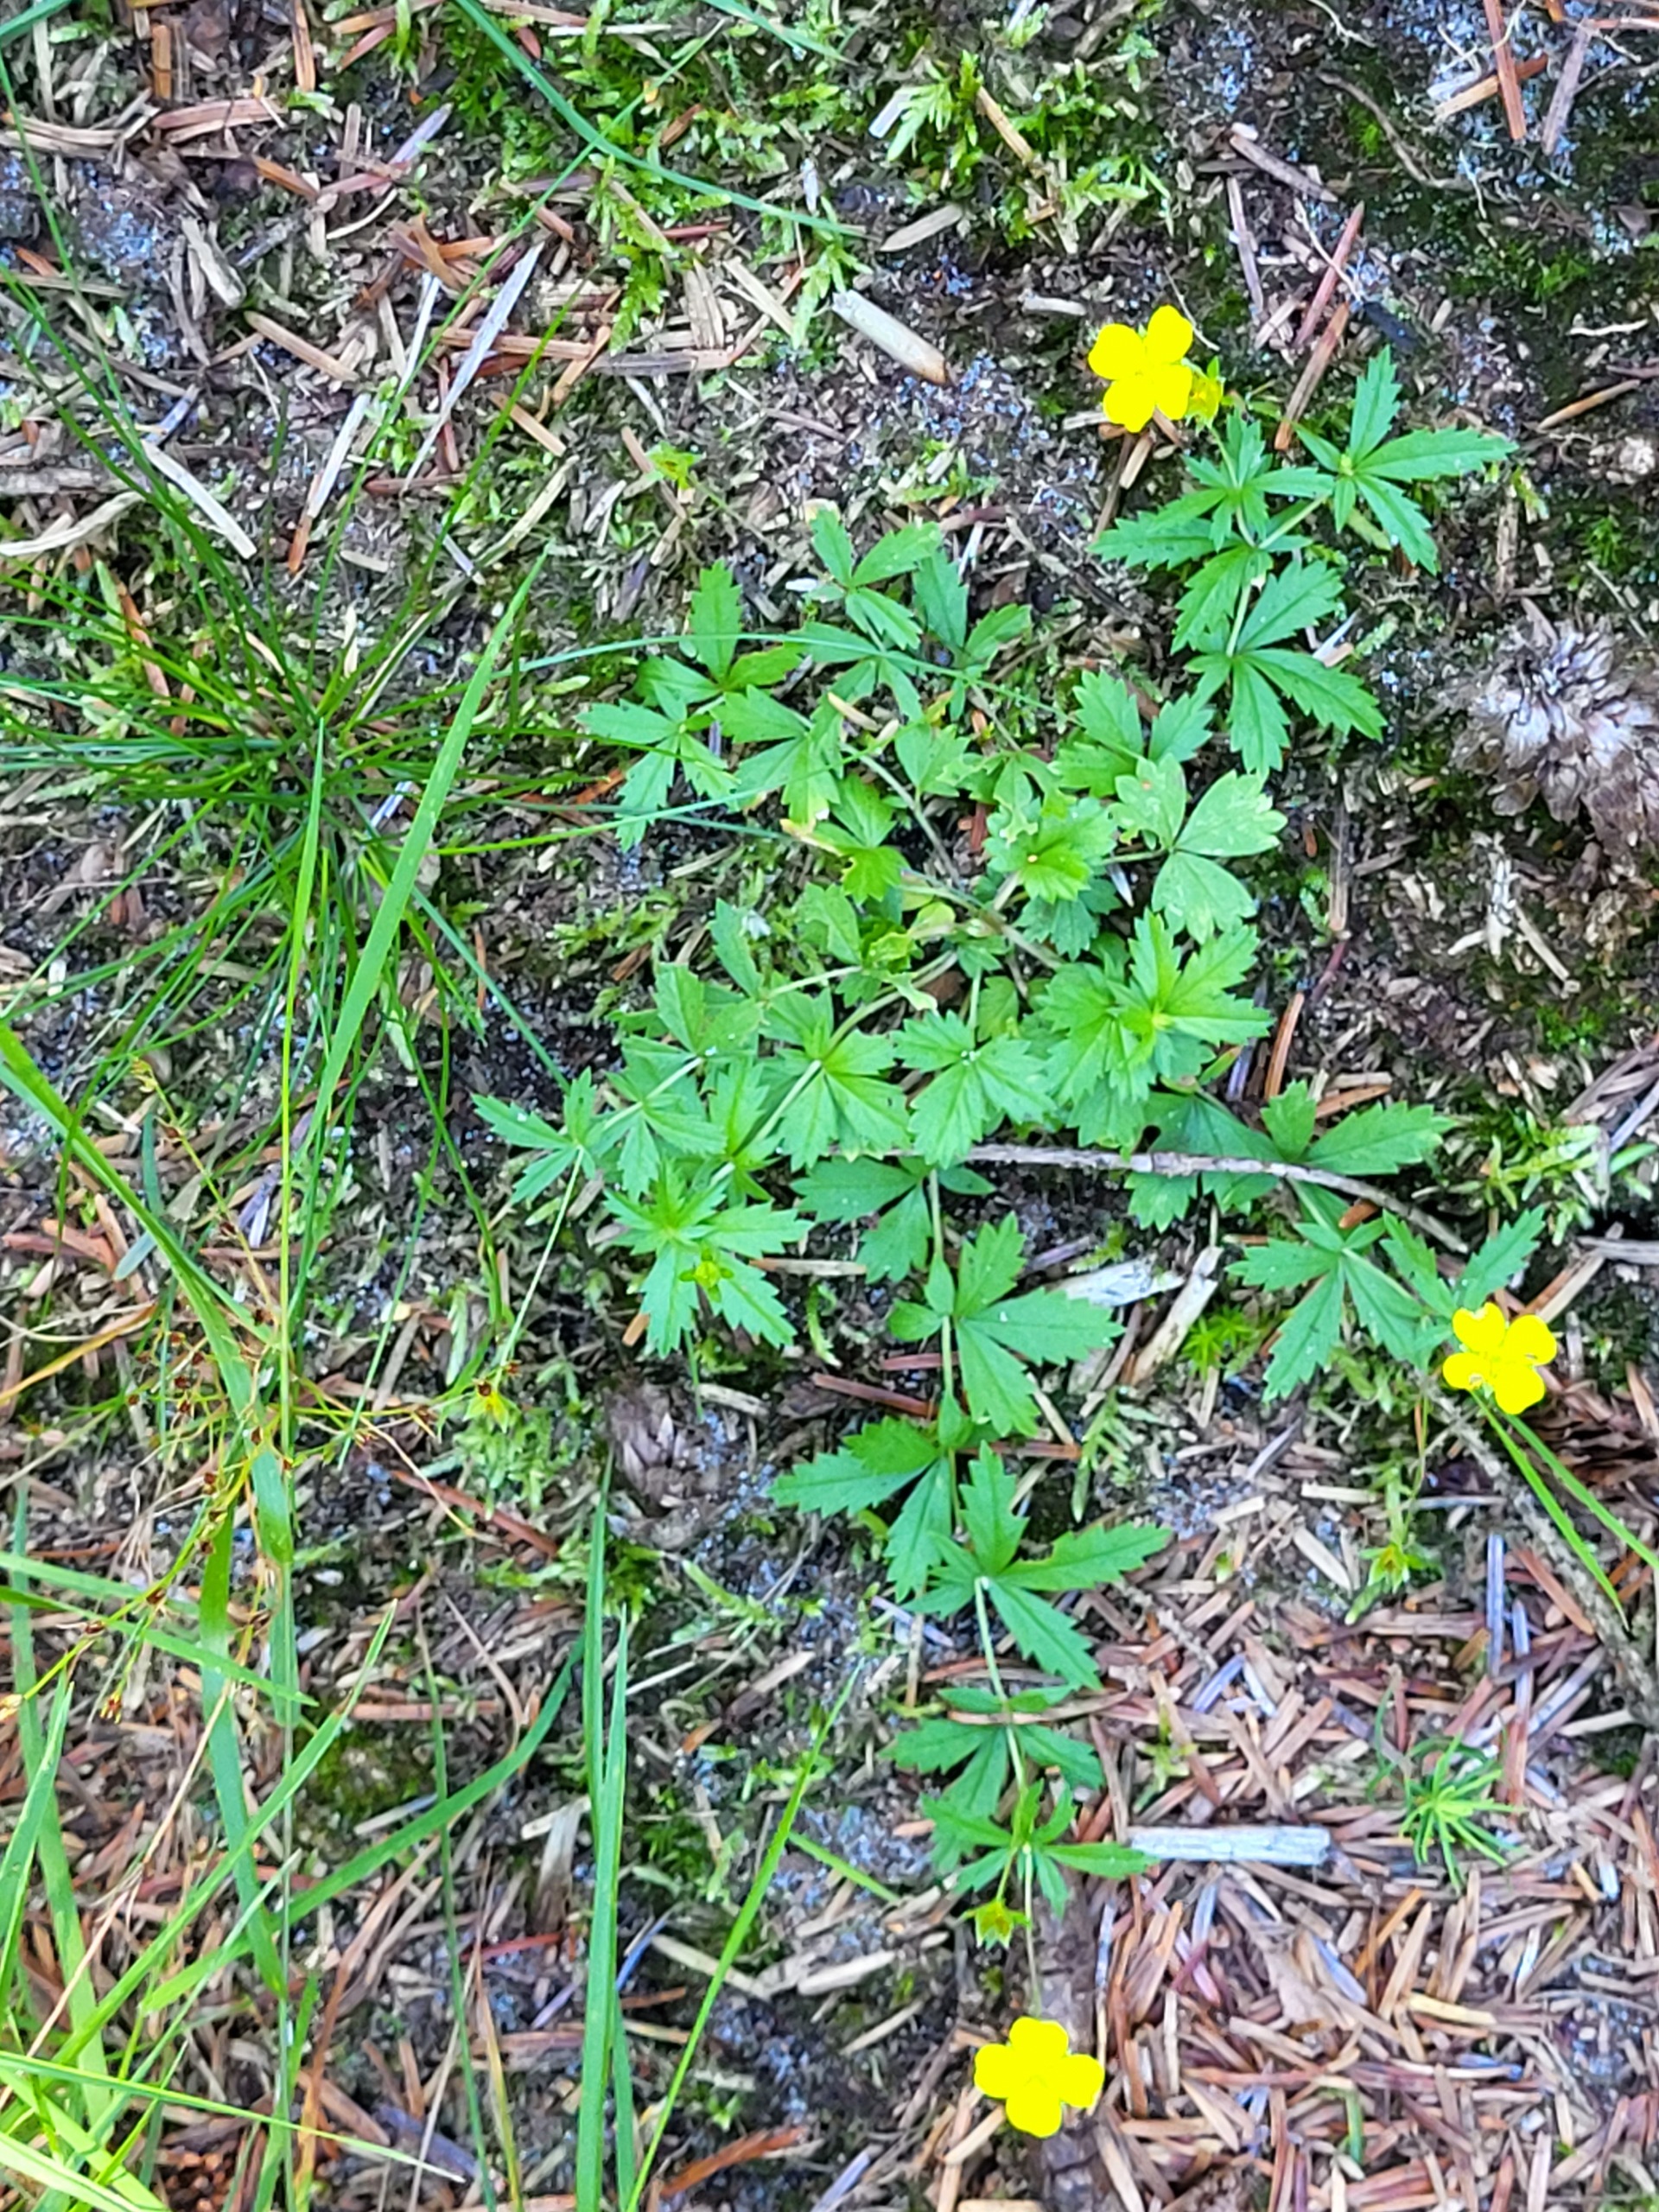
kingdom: Plantae
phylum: Tracheophyta
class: Magnoliopsida
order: Rosales
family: Rosaceae
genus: Potentilla
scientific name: Potentilla erecta
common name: Tormentil
